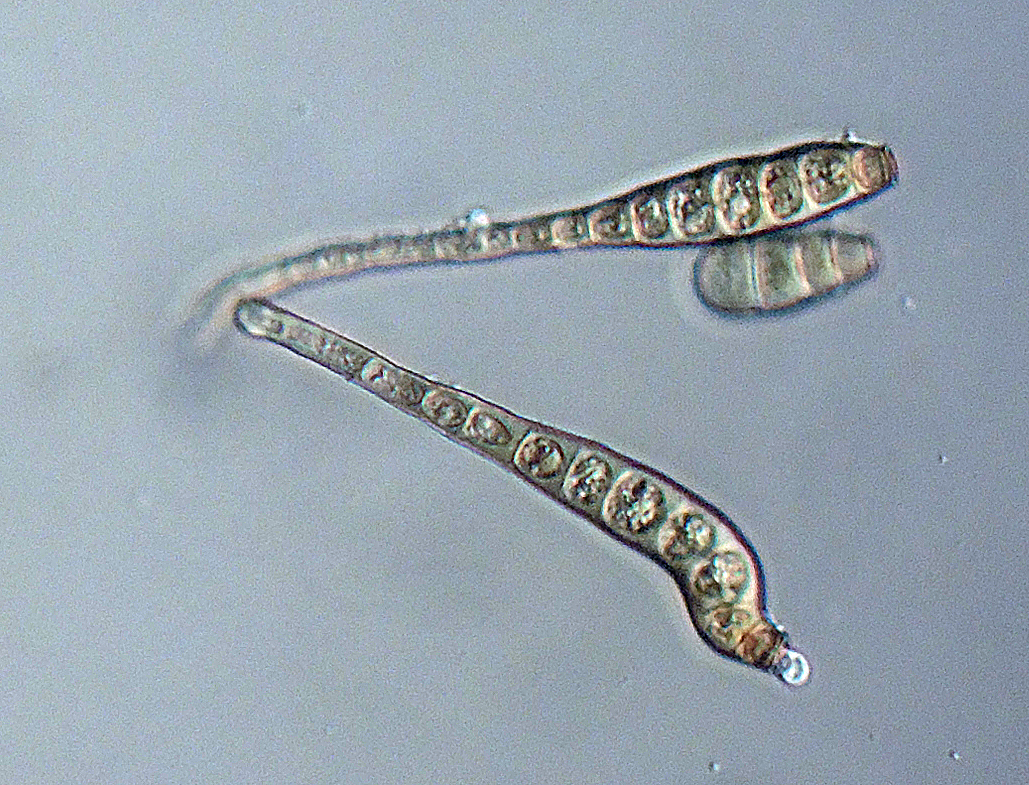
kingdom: Fungi
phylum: Ascomycota
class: Sordariomycetes
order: Chaetosphaeriales
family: Chaetosphaeriaceae
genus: Ellisembia
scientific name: Ellisembia leptospora
